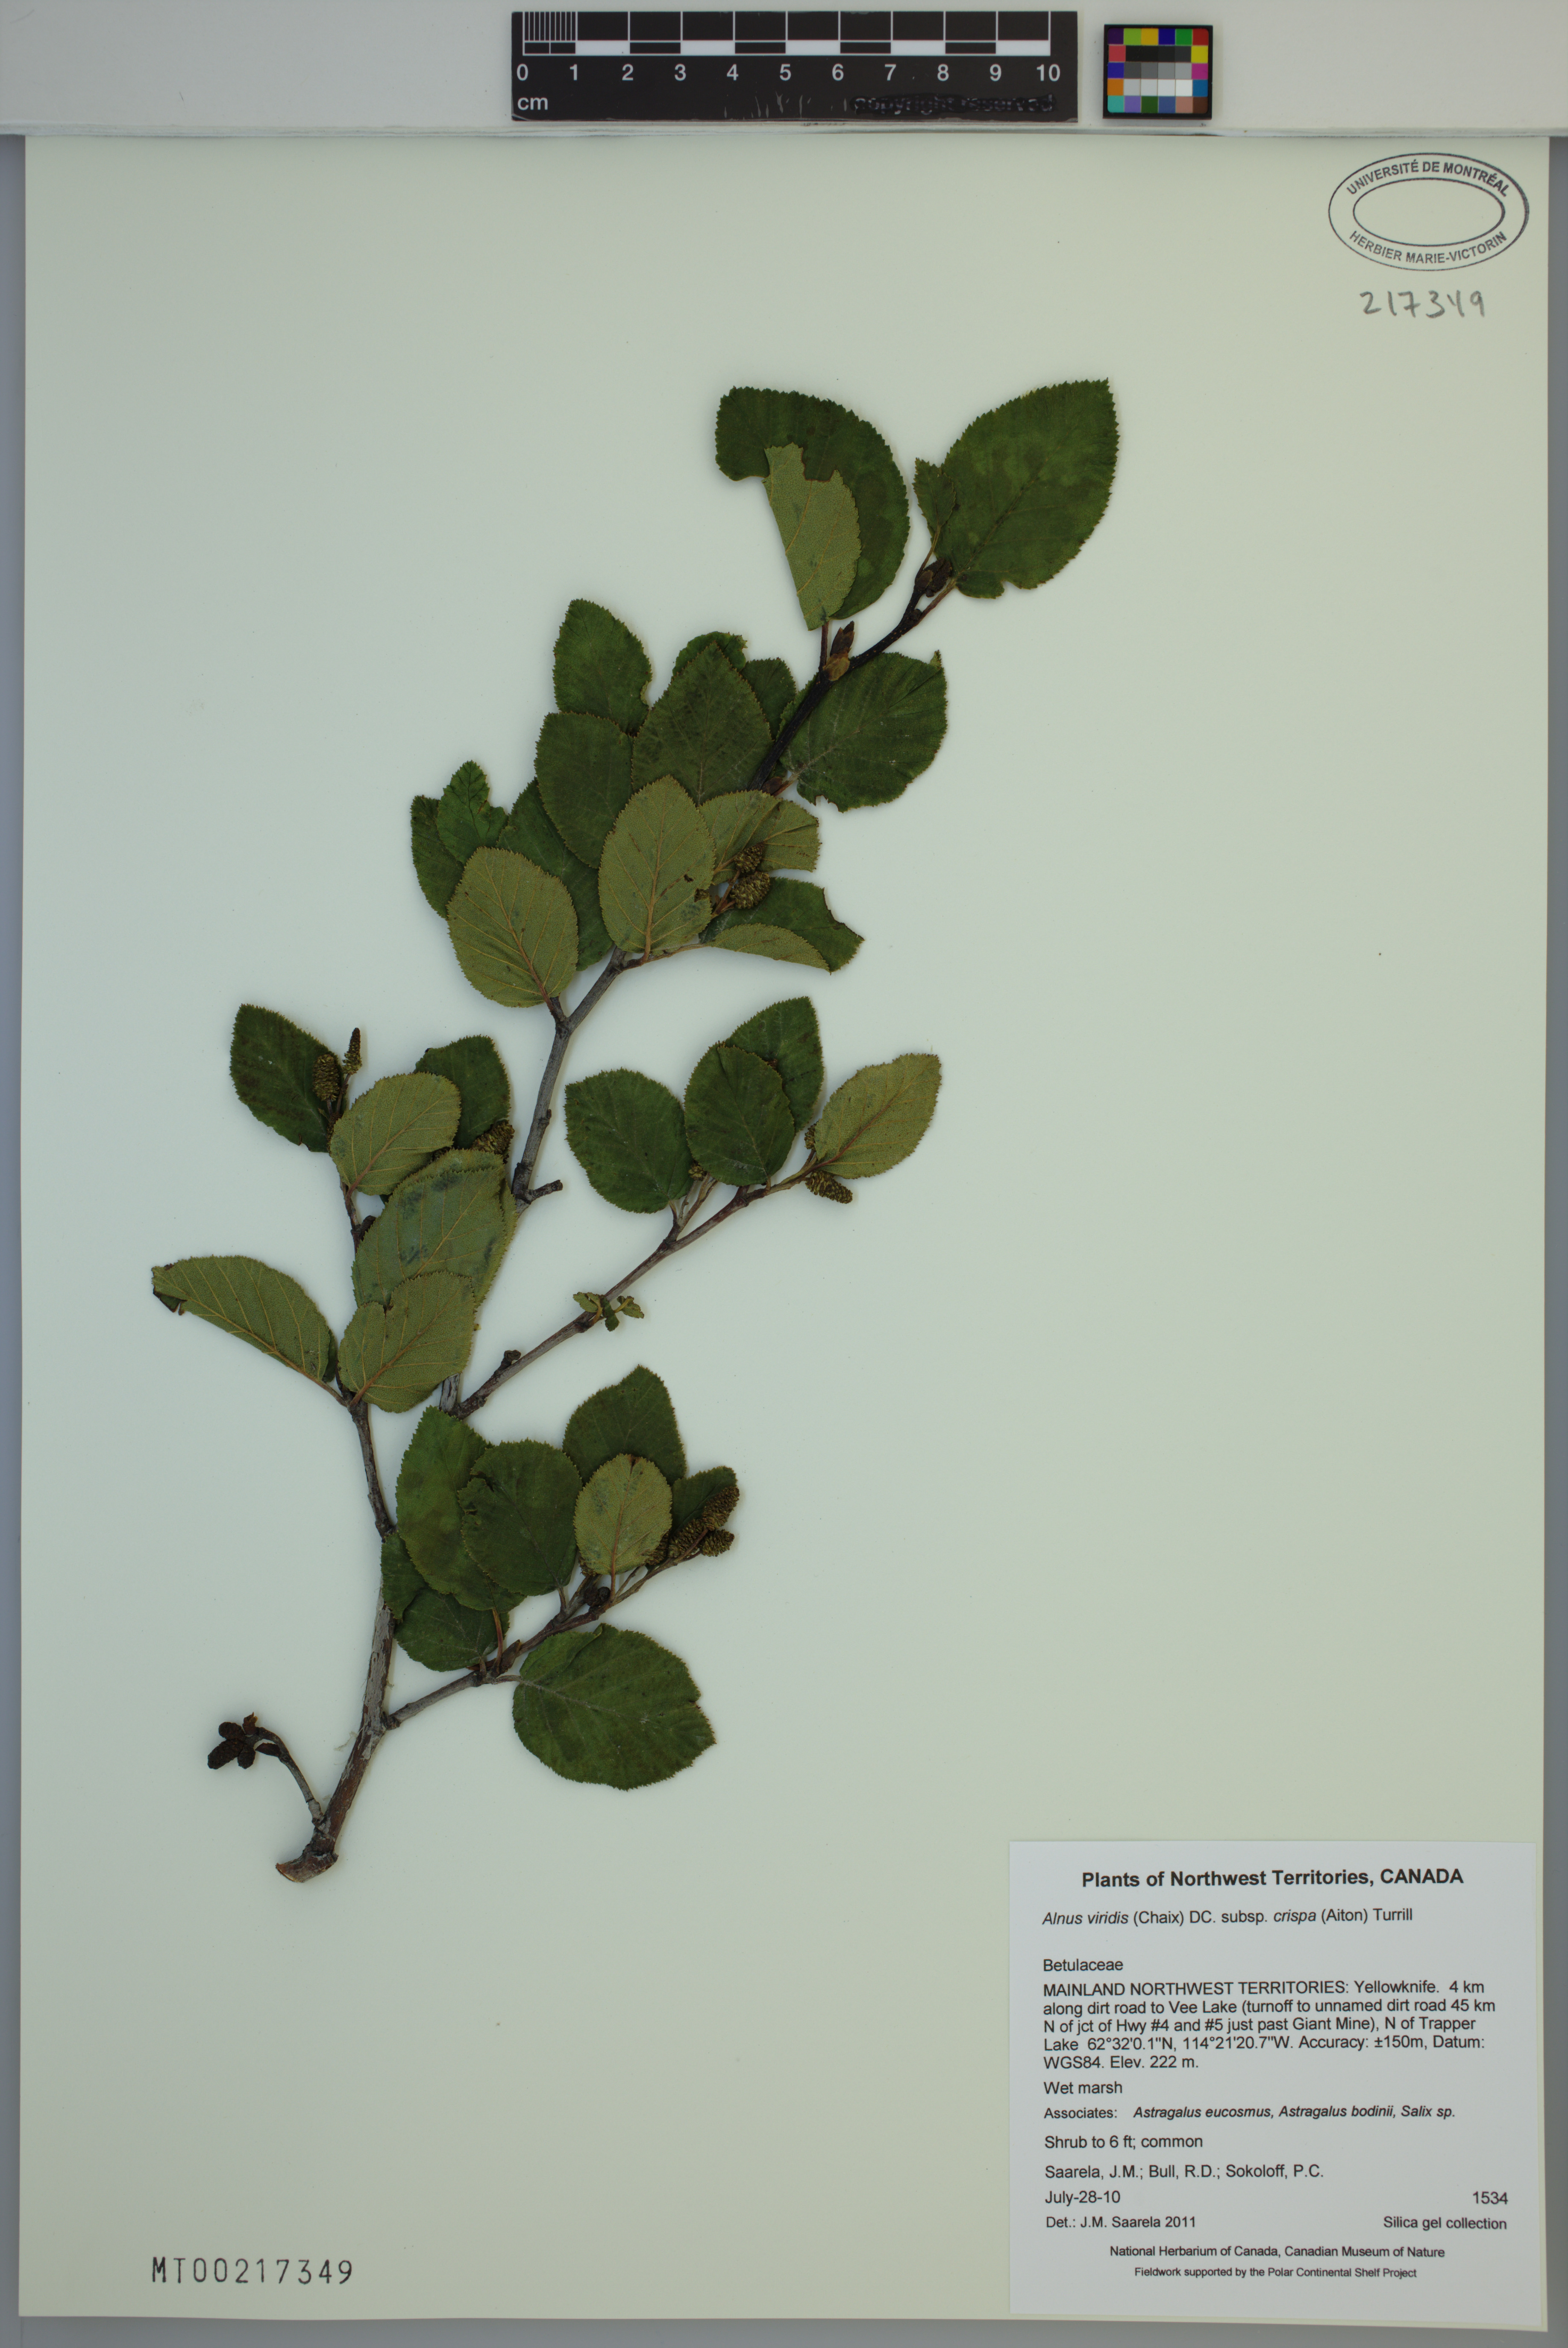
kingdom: Plantae
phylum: Tracheophyta
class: Magnoliopsida
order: Fagales
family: Betulaceae
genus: Alnus
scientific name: Alnus alnobetula
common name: Green alder
